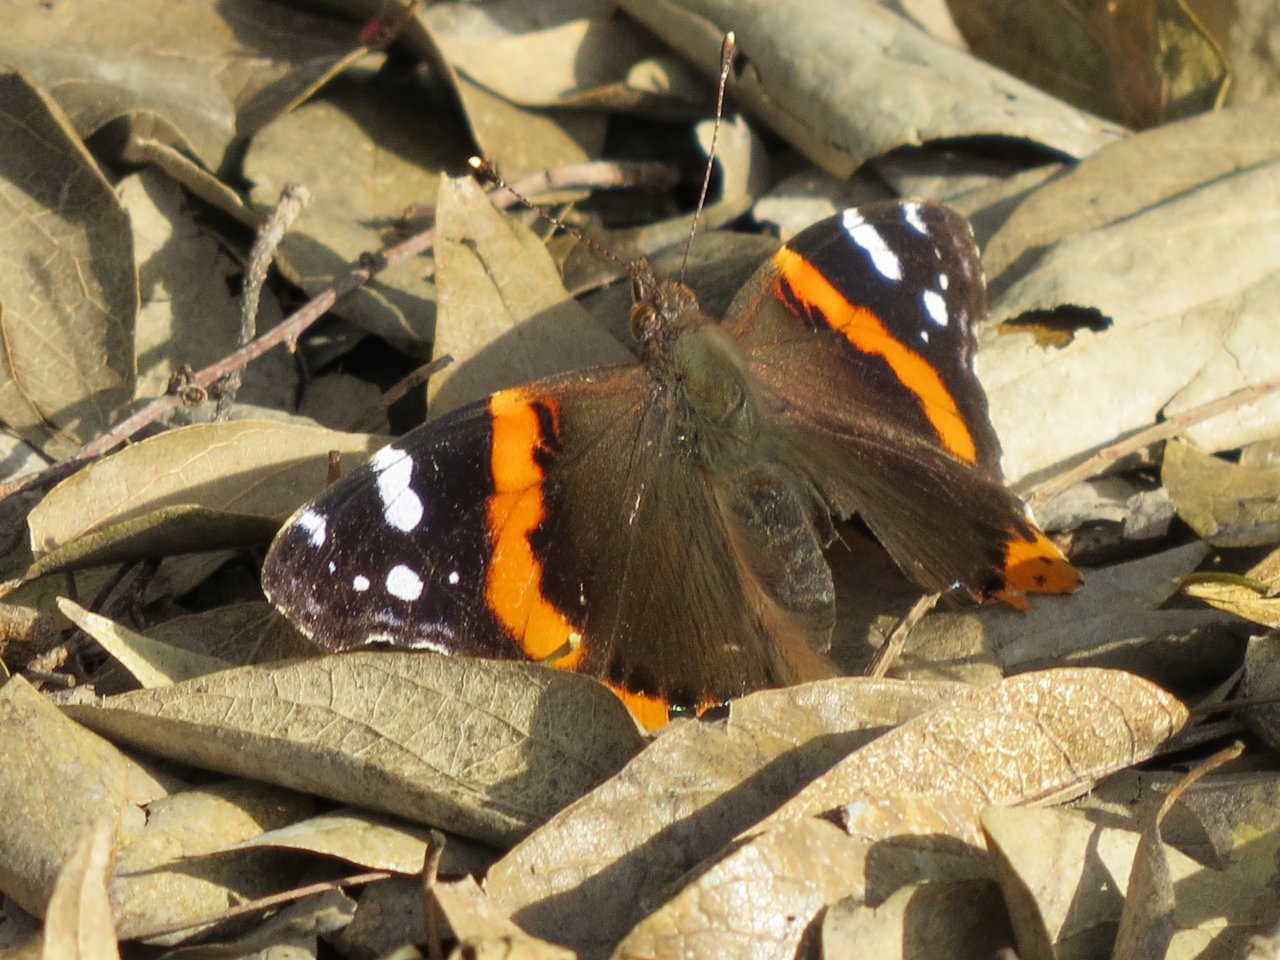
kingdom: Animalia
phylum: Arthropoda
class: Insecta
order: Lepidoptera
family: Nymphalidae
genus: Vanessa
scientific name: Vanessa atalanta
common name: Red Admiral
